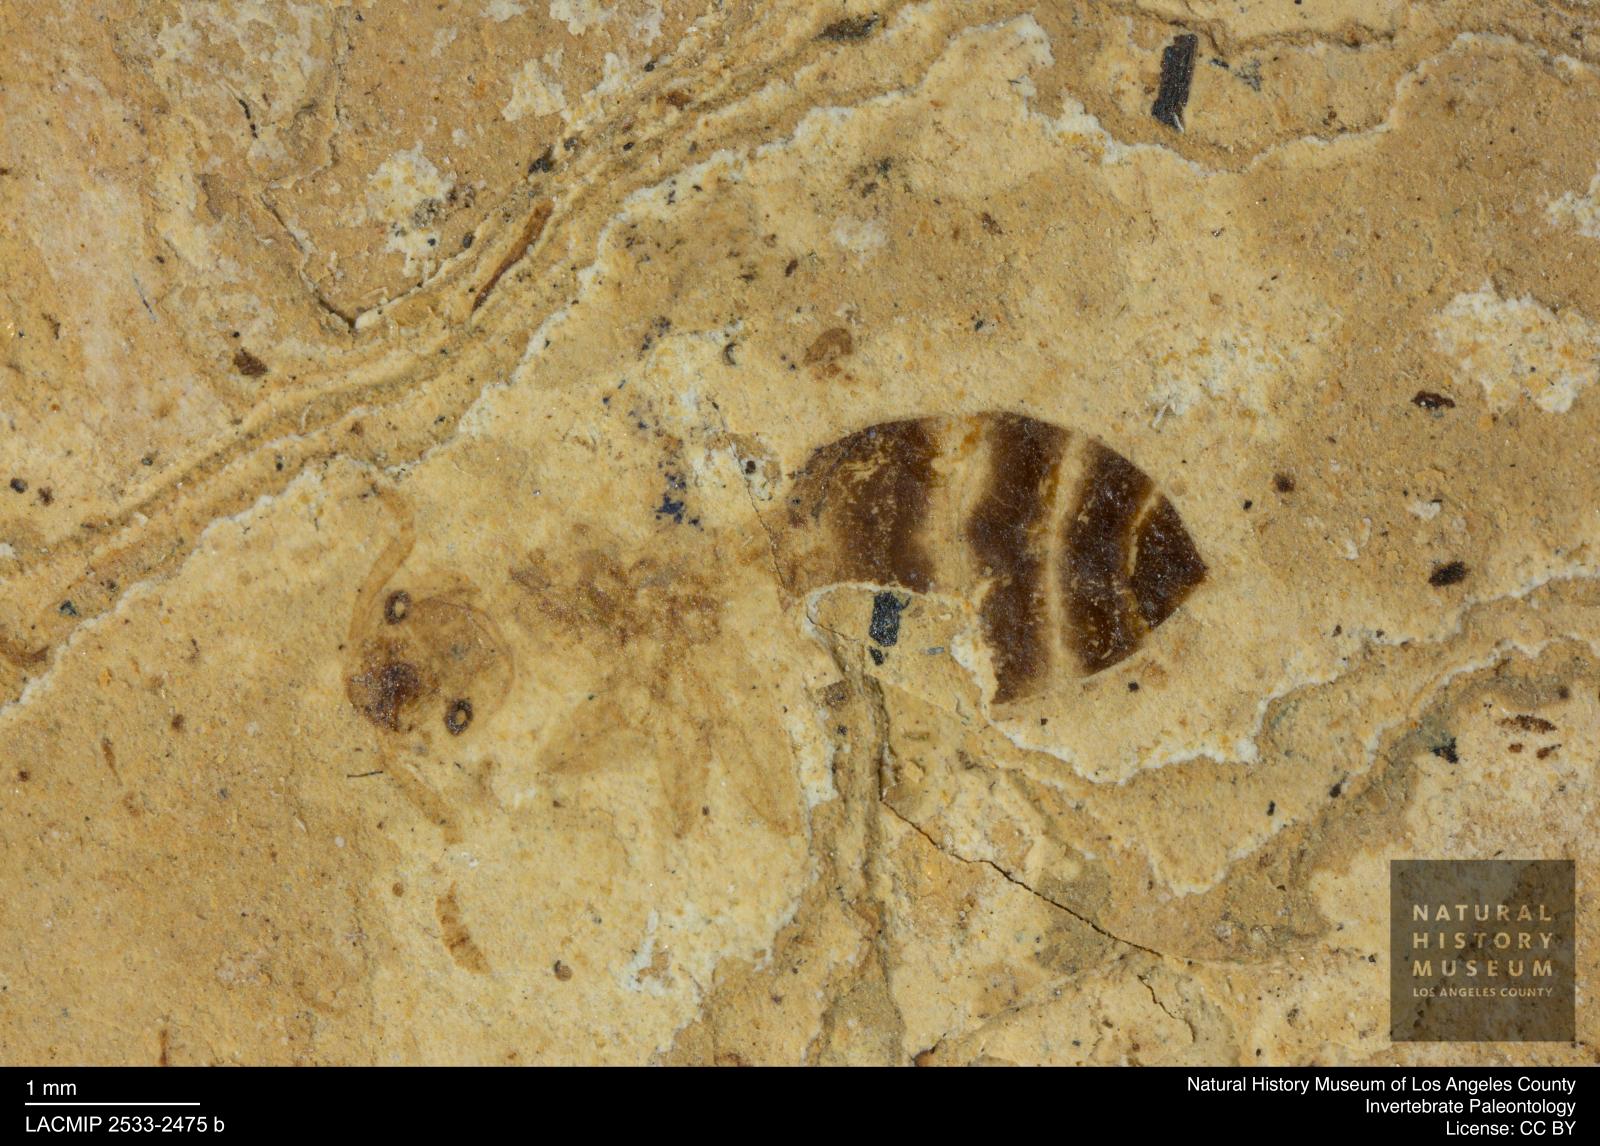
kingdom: Animalia
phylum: Arthropoda
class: Insecta
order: Hymenoptera
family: Formicidae
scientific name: Formicidae
